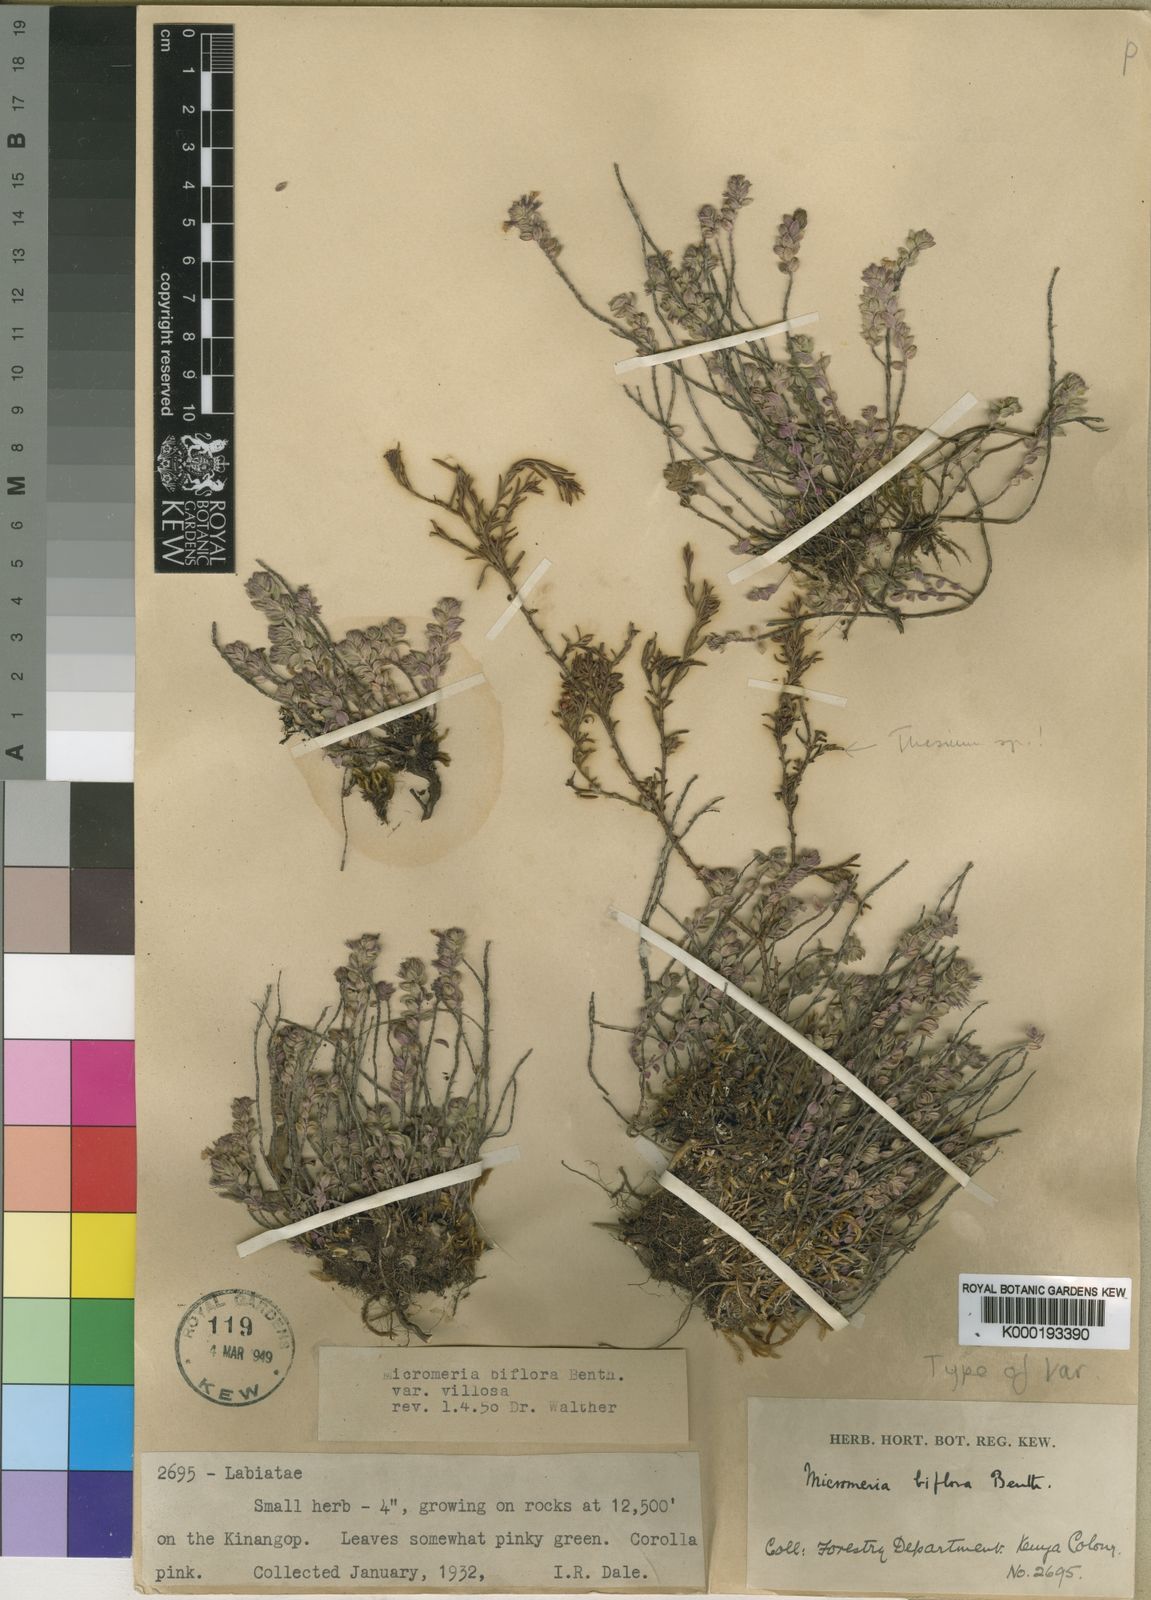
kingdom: Plantae
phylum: Tracheophyta
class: Magnoliopsida
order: Lamiales
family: Lamiaceae
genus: Micromeria
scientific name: Micromeria imbricata
